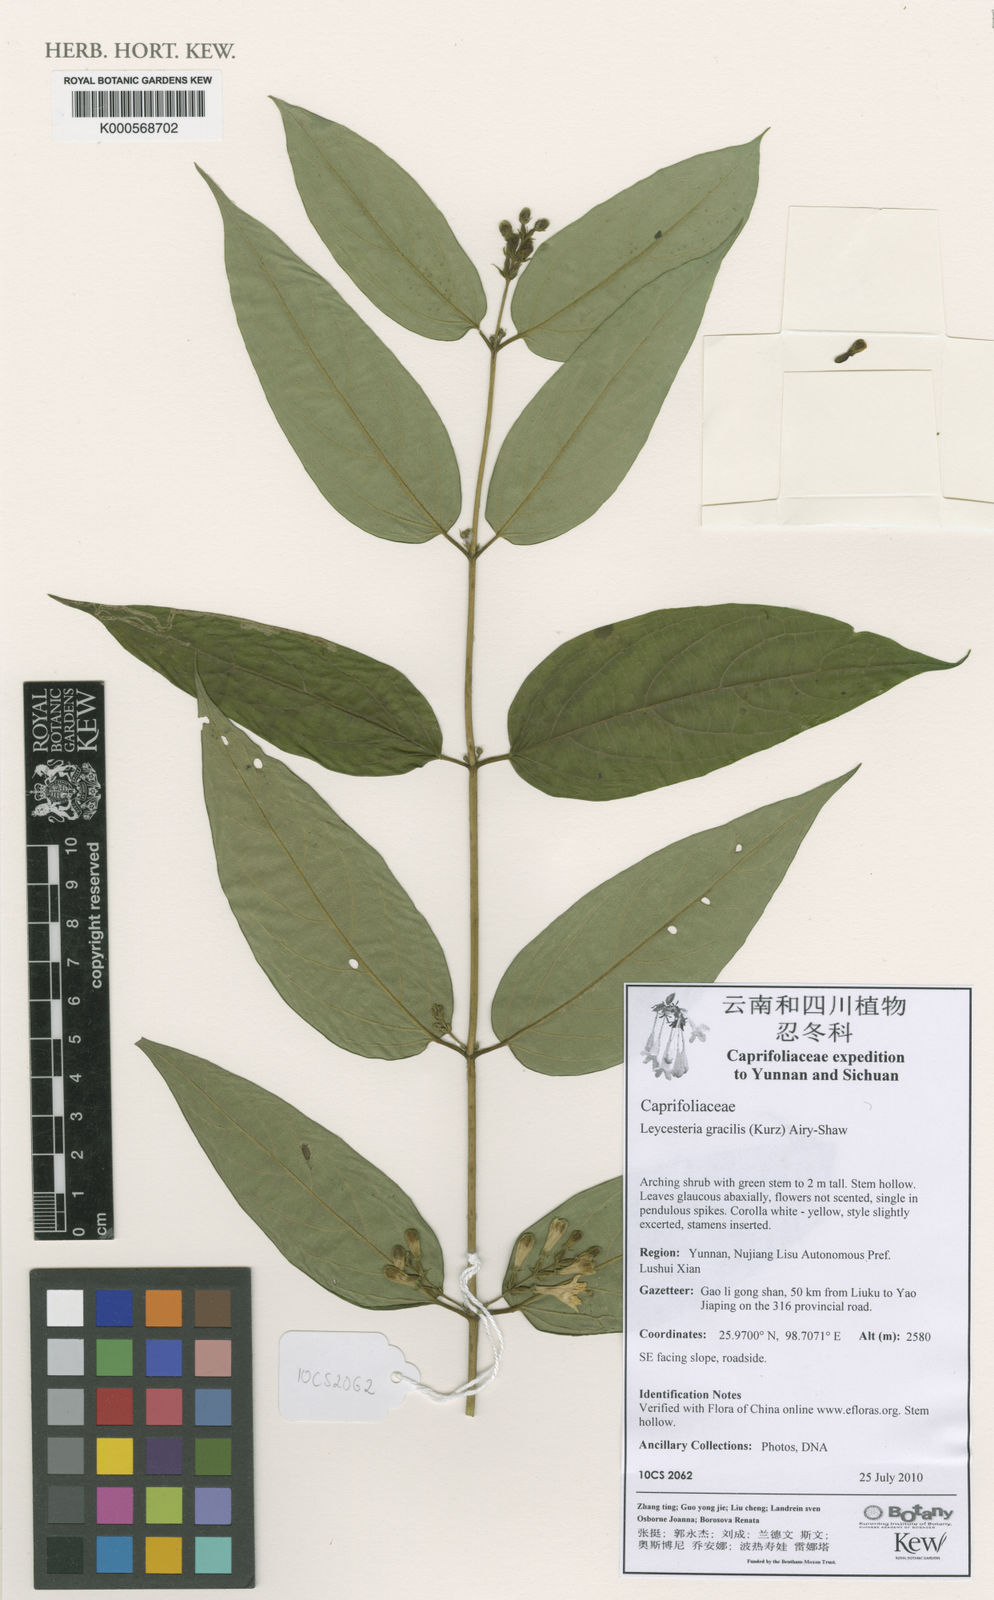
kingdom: Plantae
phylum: Tracheophyta
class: Magnoliopsida
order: Dipsacales
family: Caprifoliaceae
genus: Leycesteria
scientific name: Leycesteria gracilis
